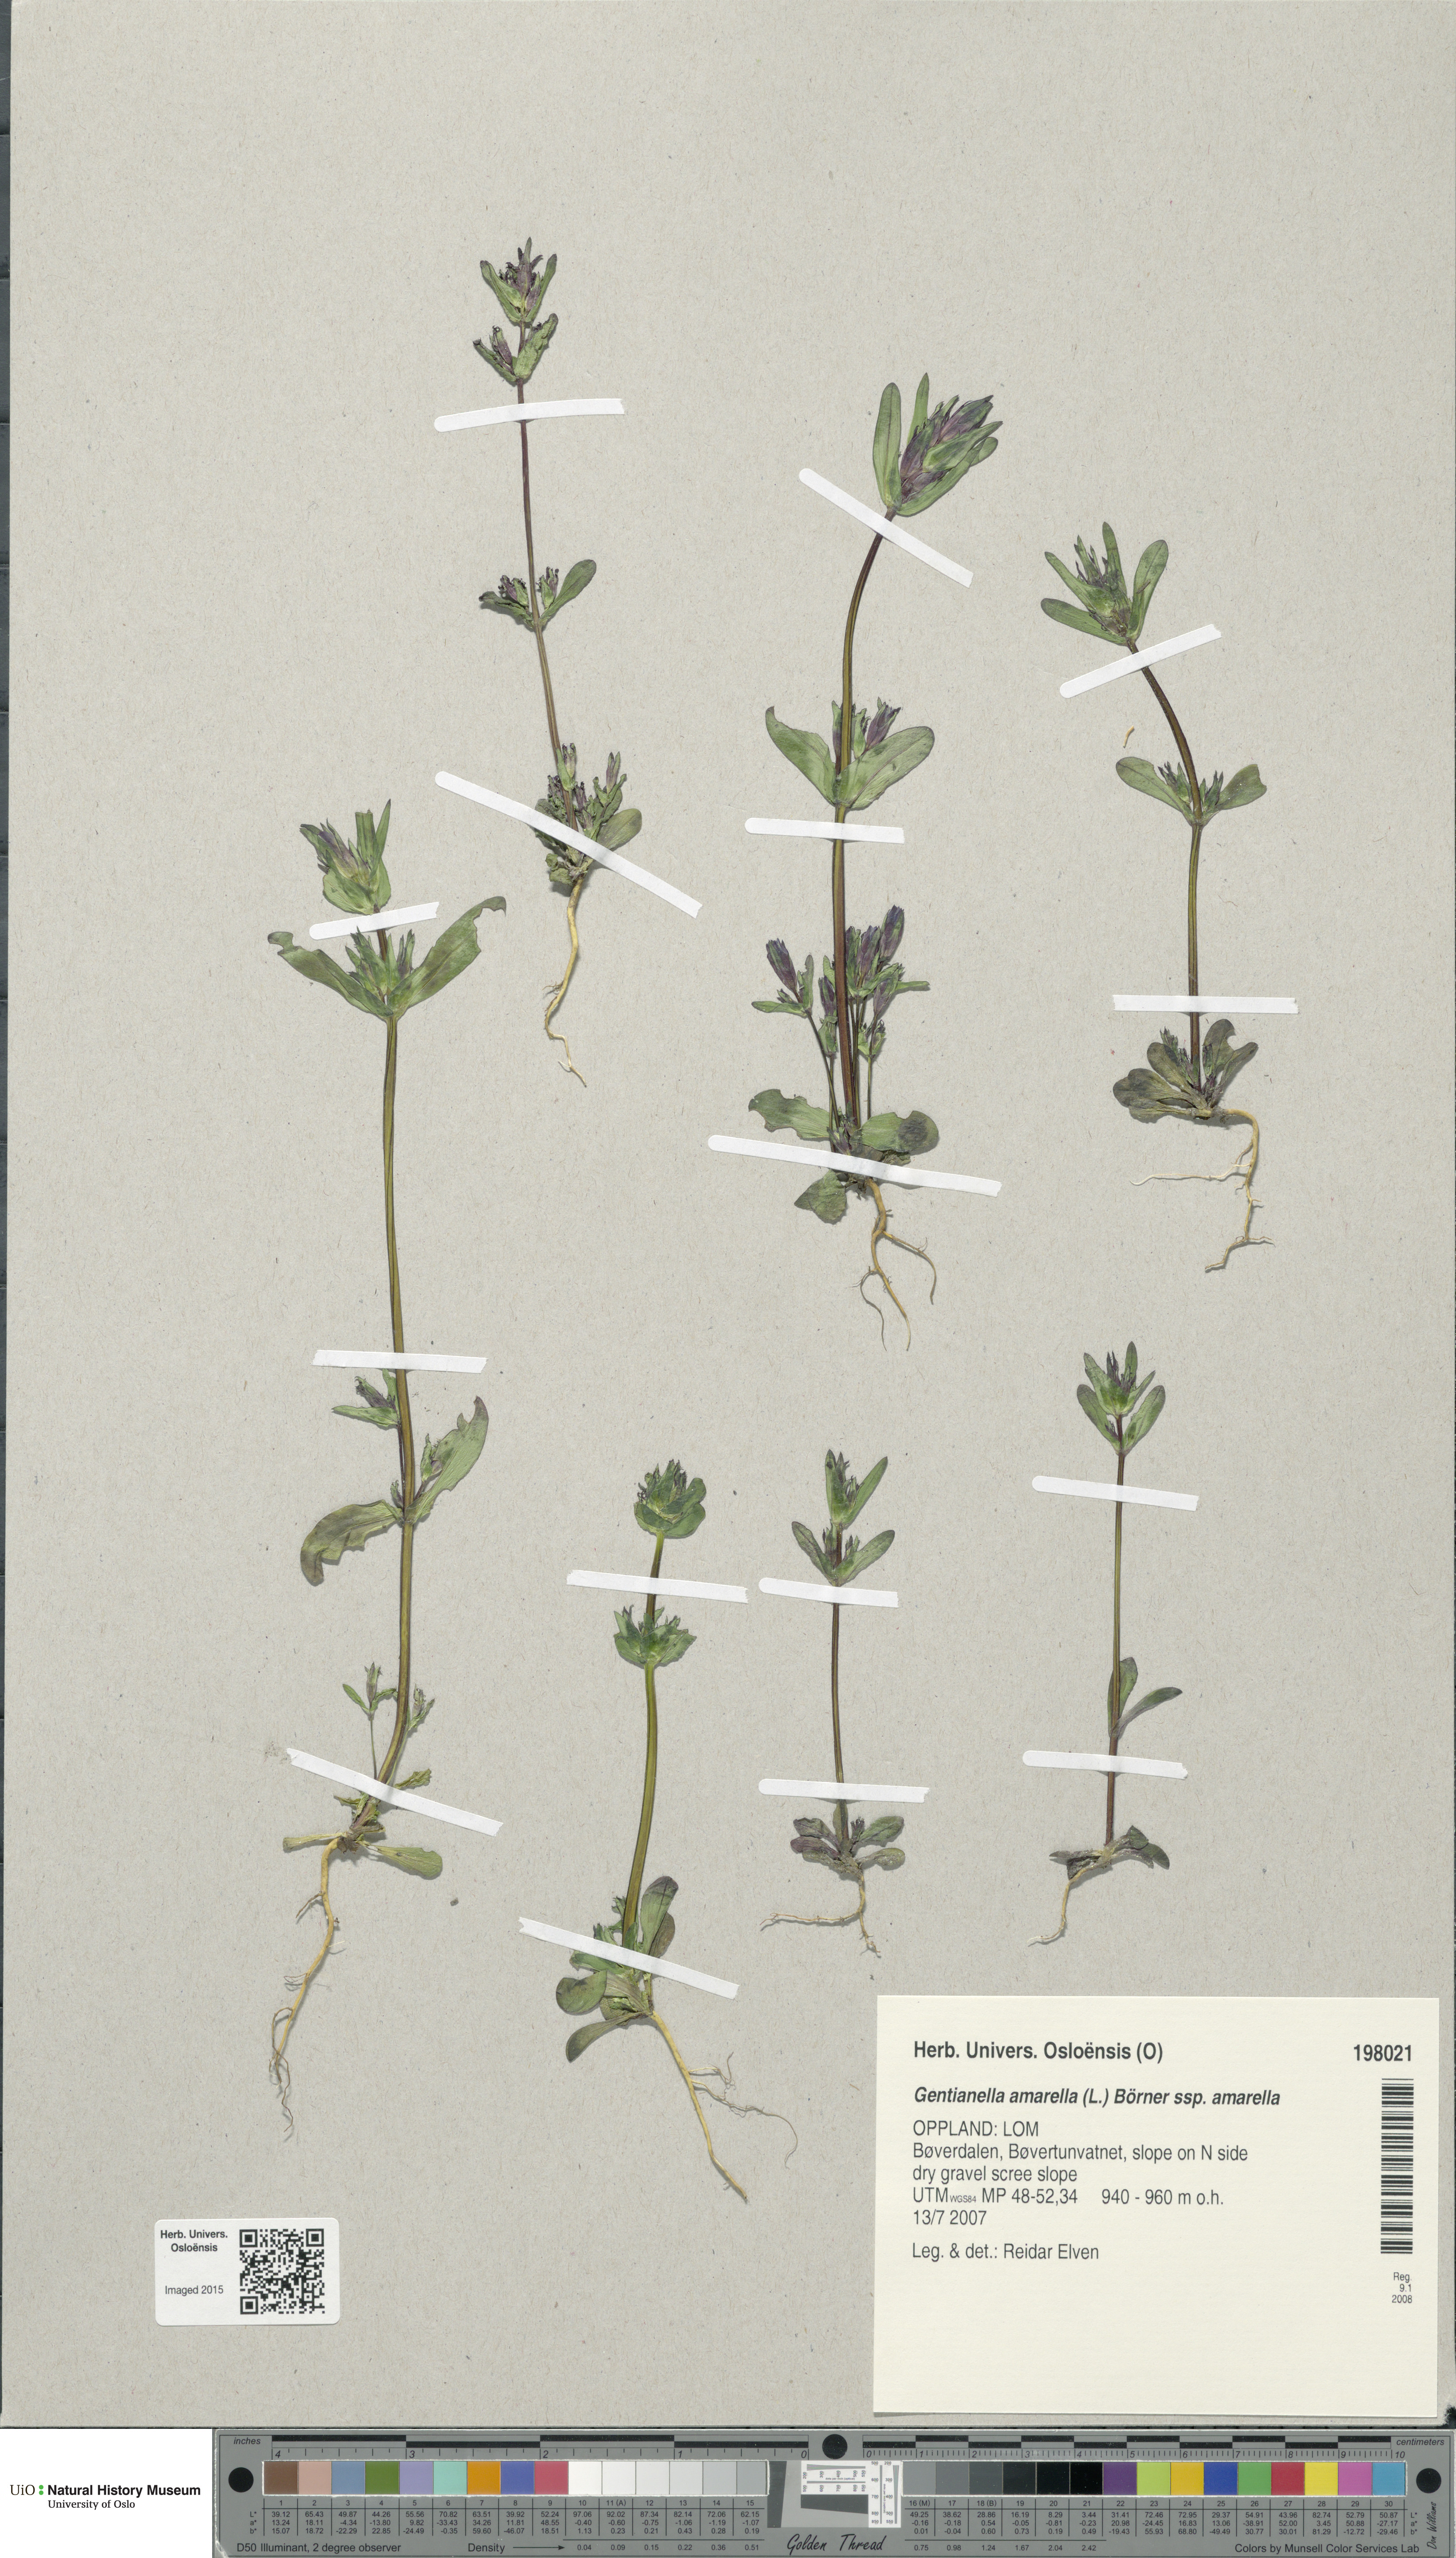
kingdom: Plantae
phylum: Tracheophyta
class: Magnoliopsida
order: Gentianales
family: Gentianaceae
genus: Gentianella
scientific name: Gentianella amarella
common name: Autumn gentian
